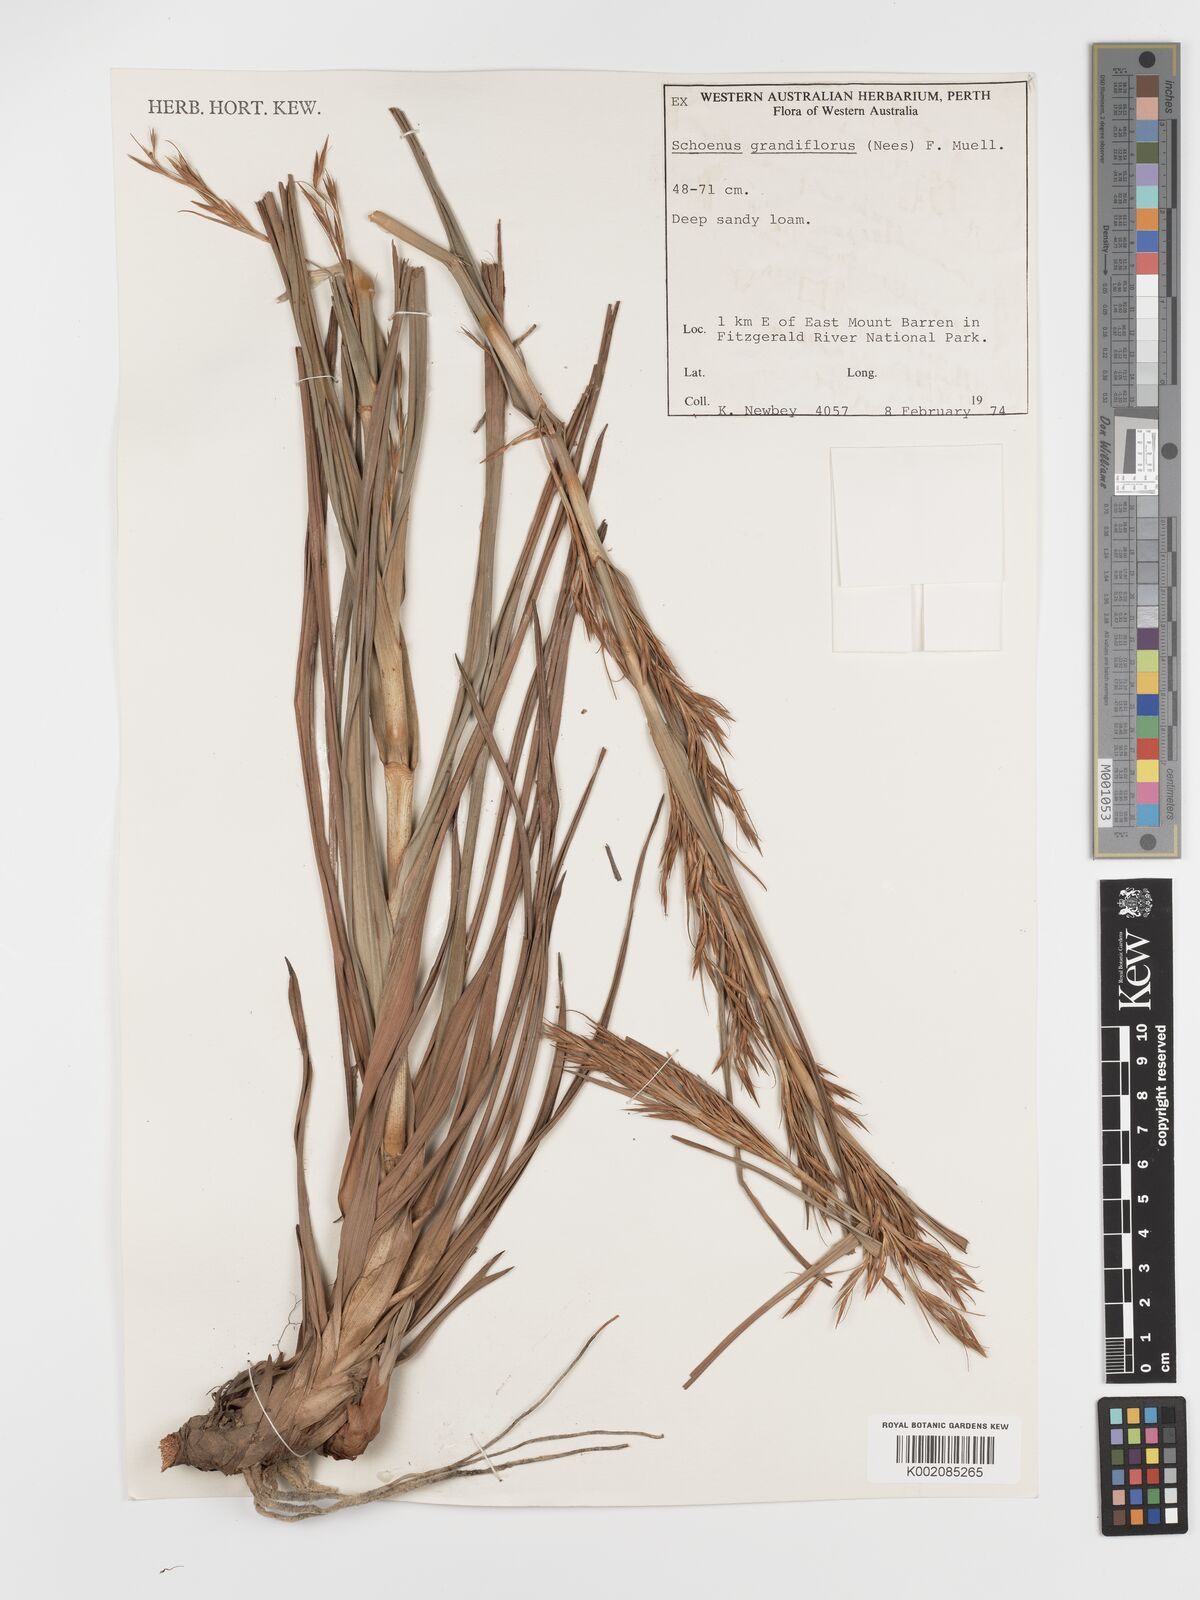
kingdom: Plantae
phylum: Tracheophyta
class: Liliopsida
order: Poales
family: Cyperaceae
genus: Schoenus
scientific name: Schoenus grandiflorus
